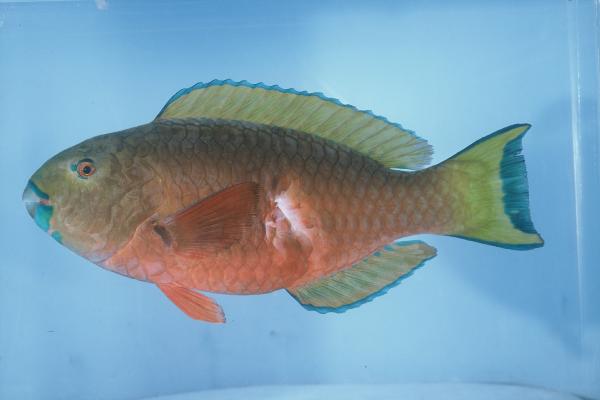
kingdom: Animalia
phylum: Chordata
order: Perciformes
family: Scaridae
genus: Chlorurus
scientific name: Chlorurus strongylocephalus
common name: Steephead parrotfish
